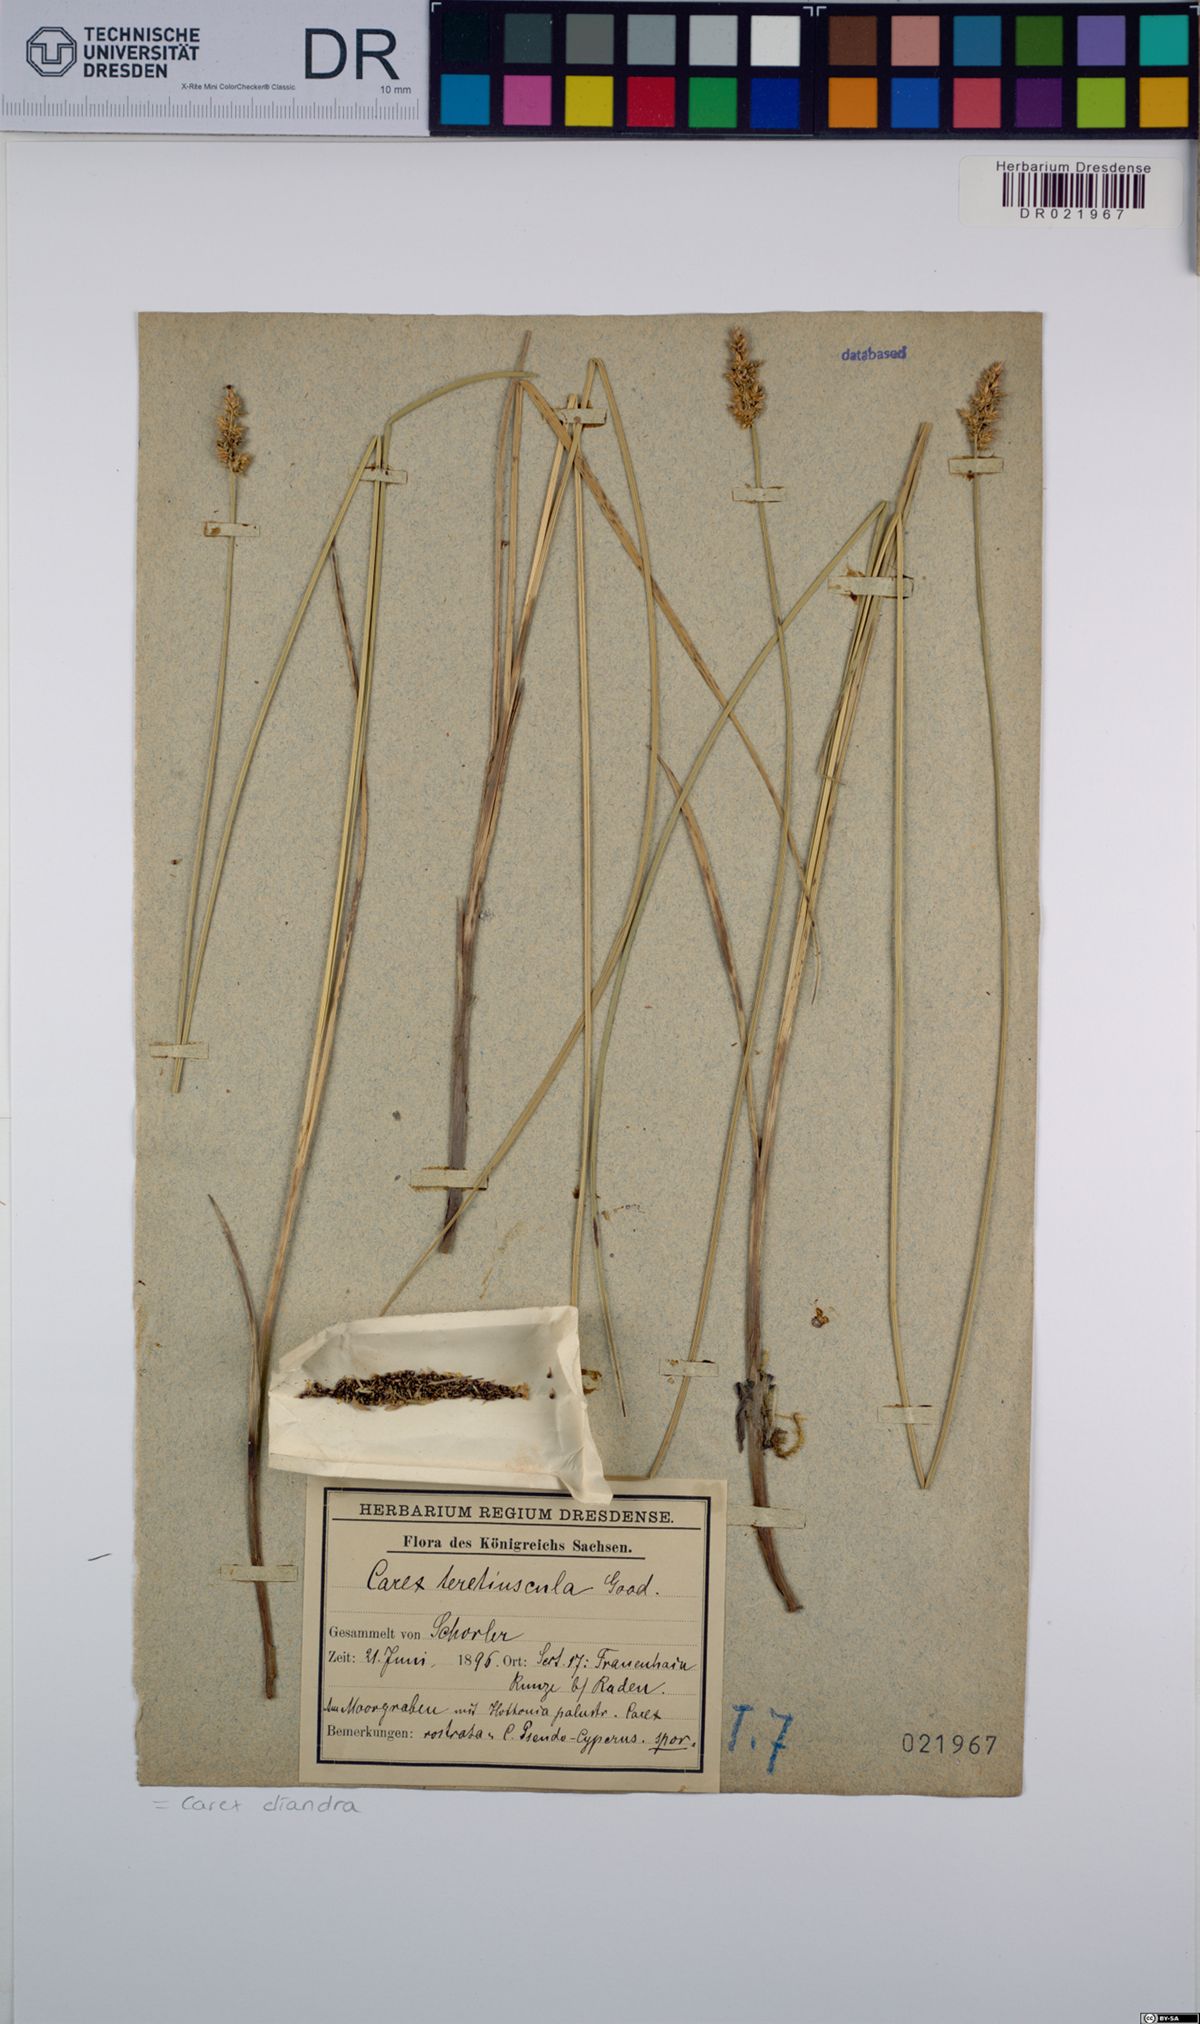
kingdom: Plantae
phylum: Tracheophyta
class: Liliopsida
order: Poales
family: Cyperaceae
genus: Carex
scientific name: Carex diandra
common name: Lesser tussock-sedge
